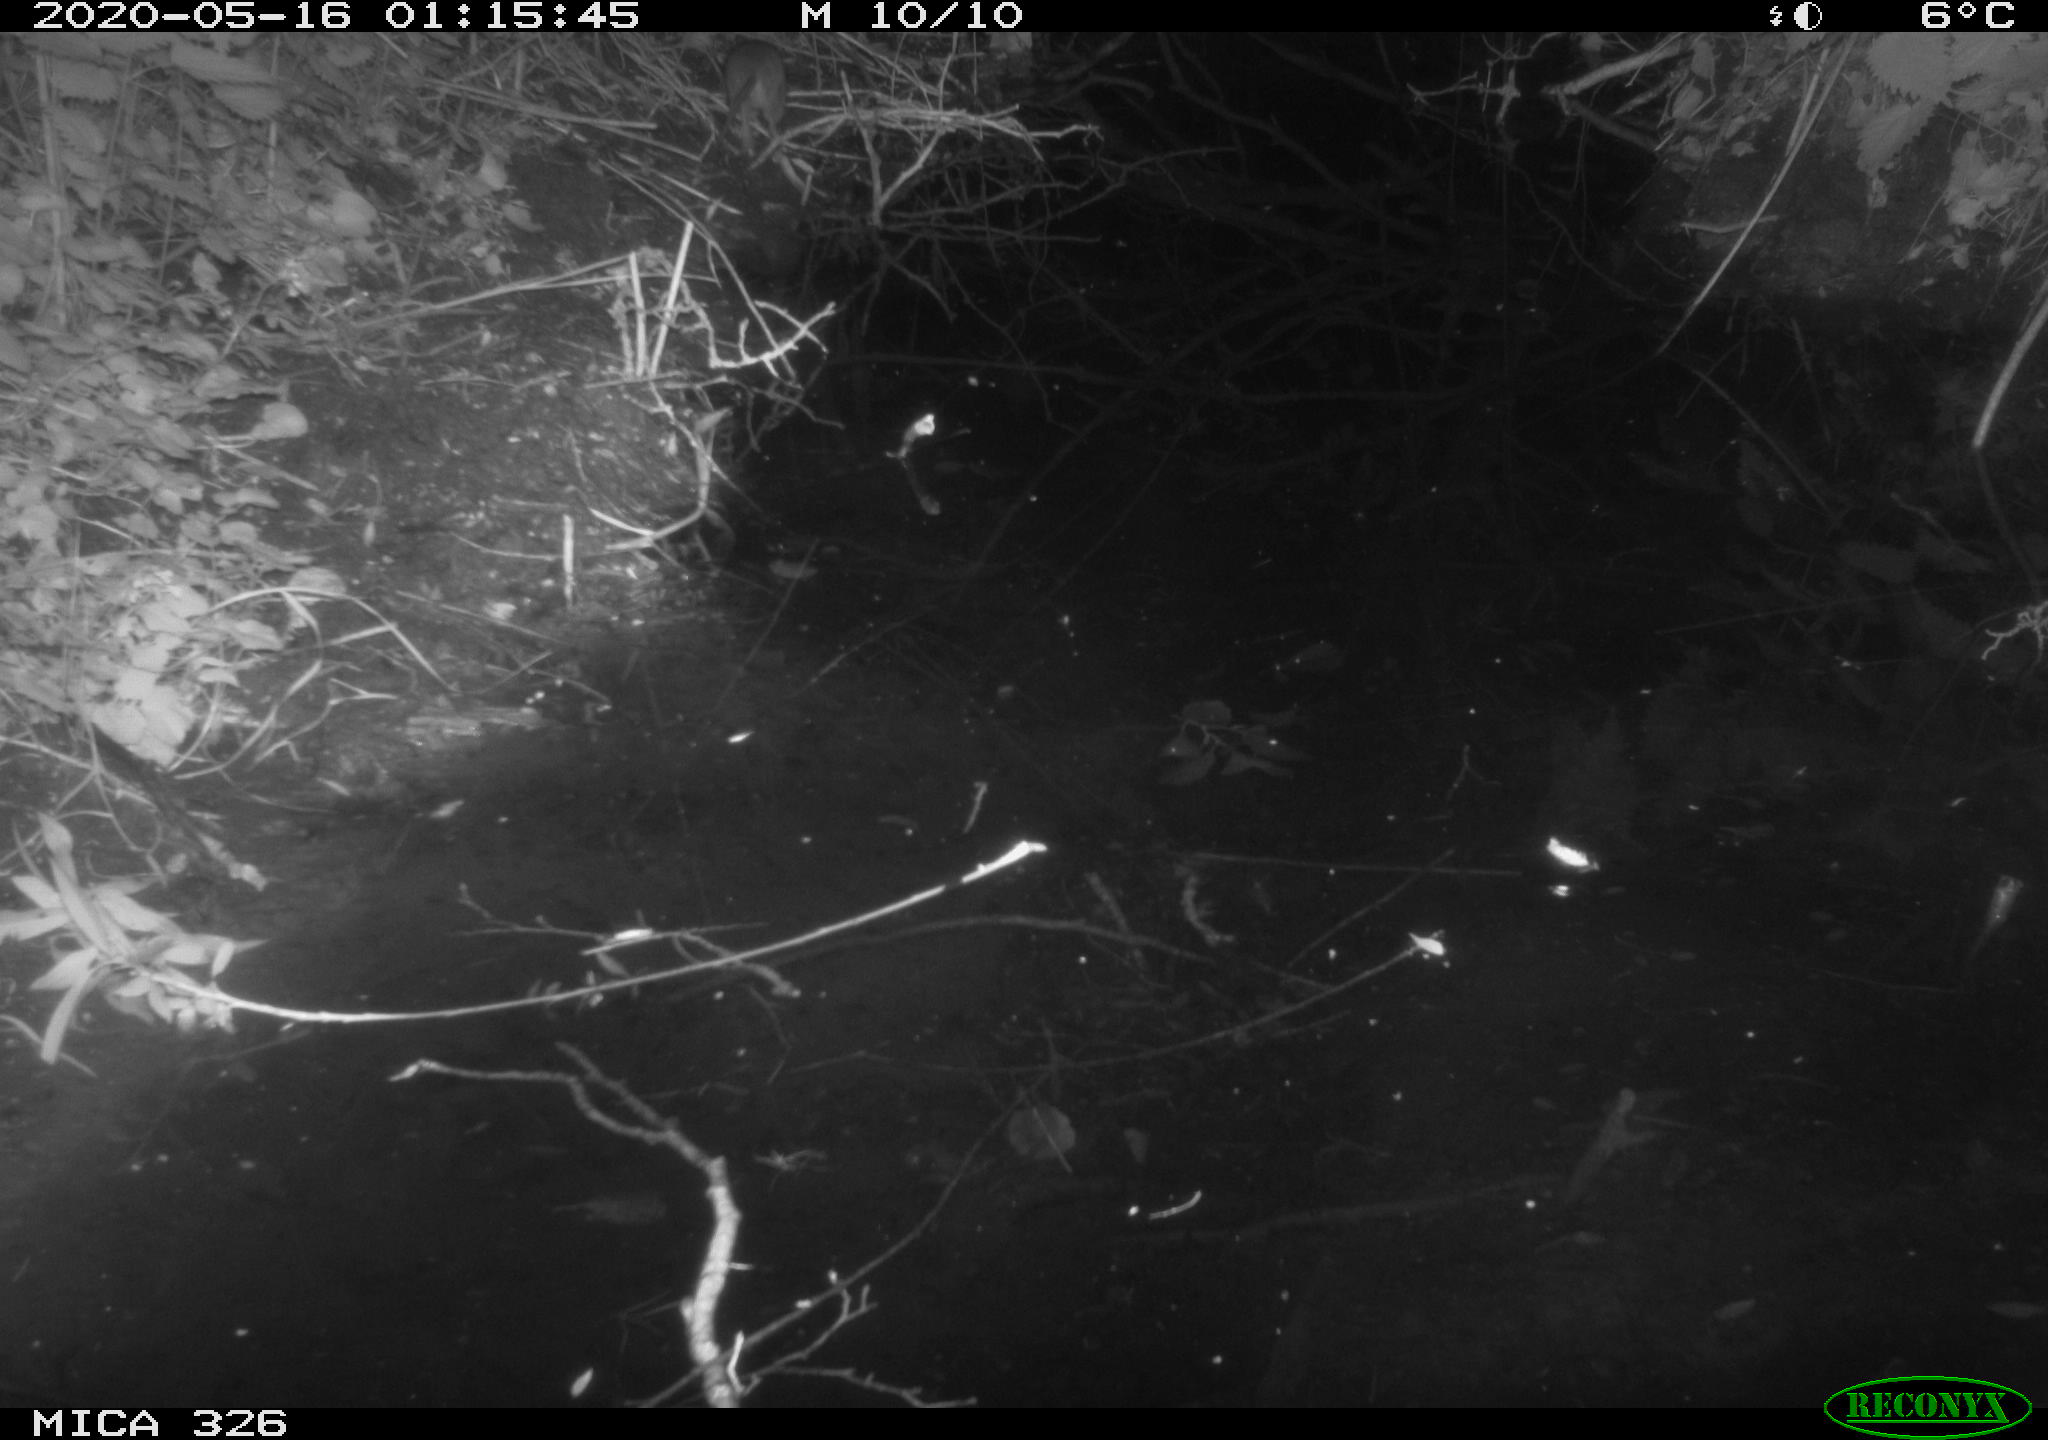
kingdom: Animalia
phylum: Chordata
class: Mammalia
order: Rodentia
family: Muridae
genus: Rattus
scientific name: Rattus norvegicus
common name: Brown rat
